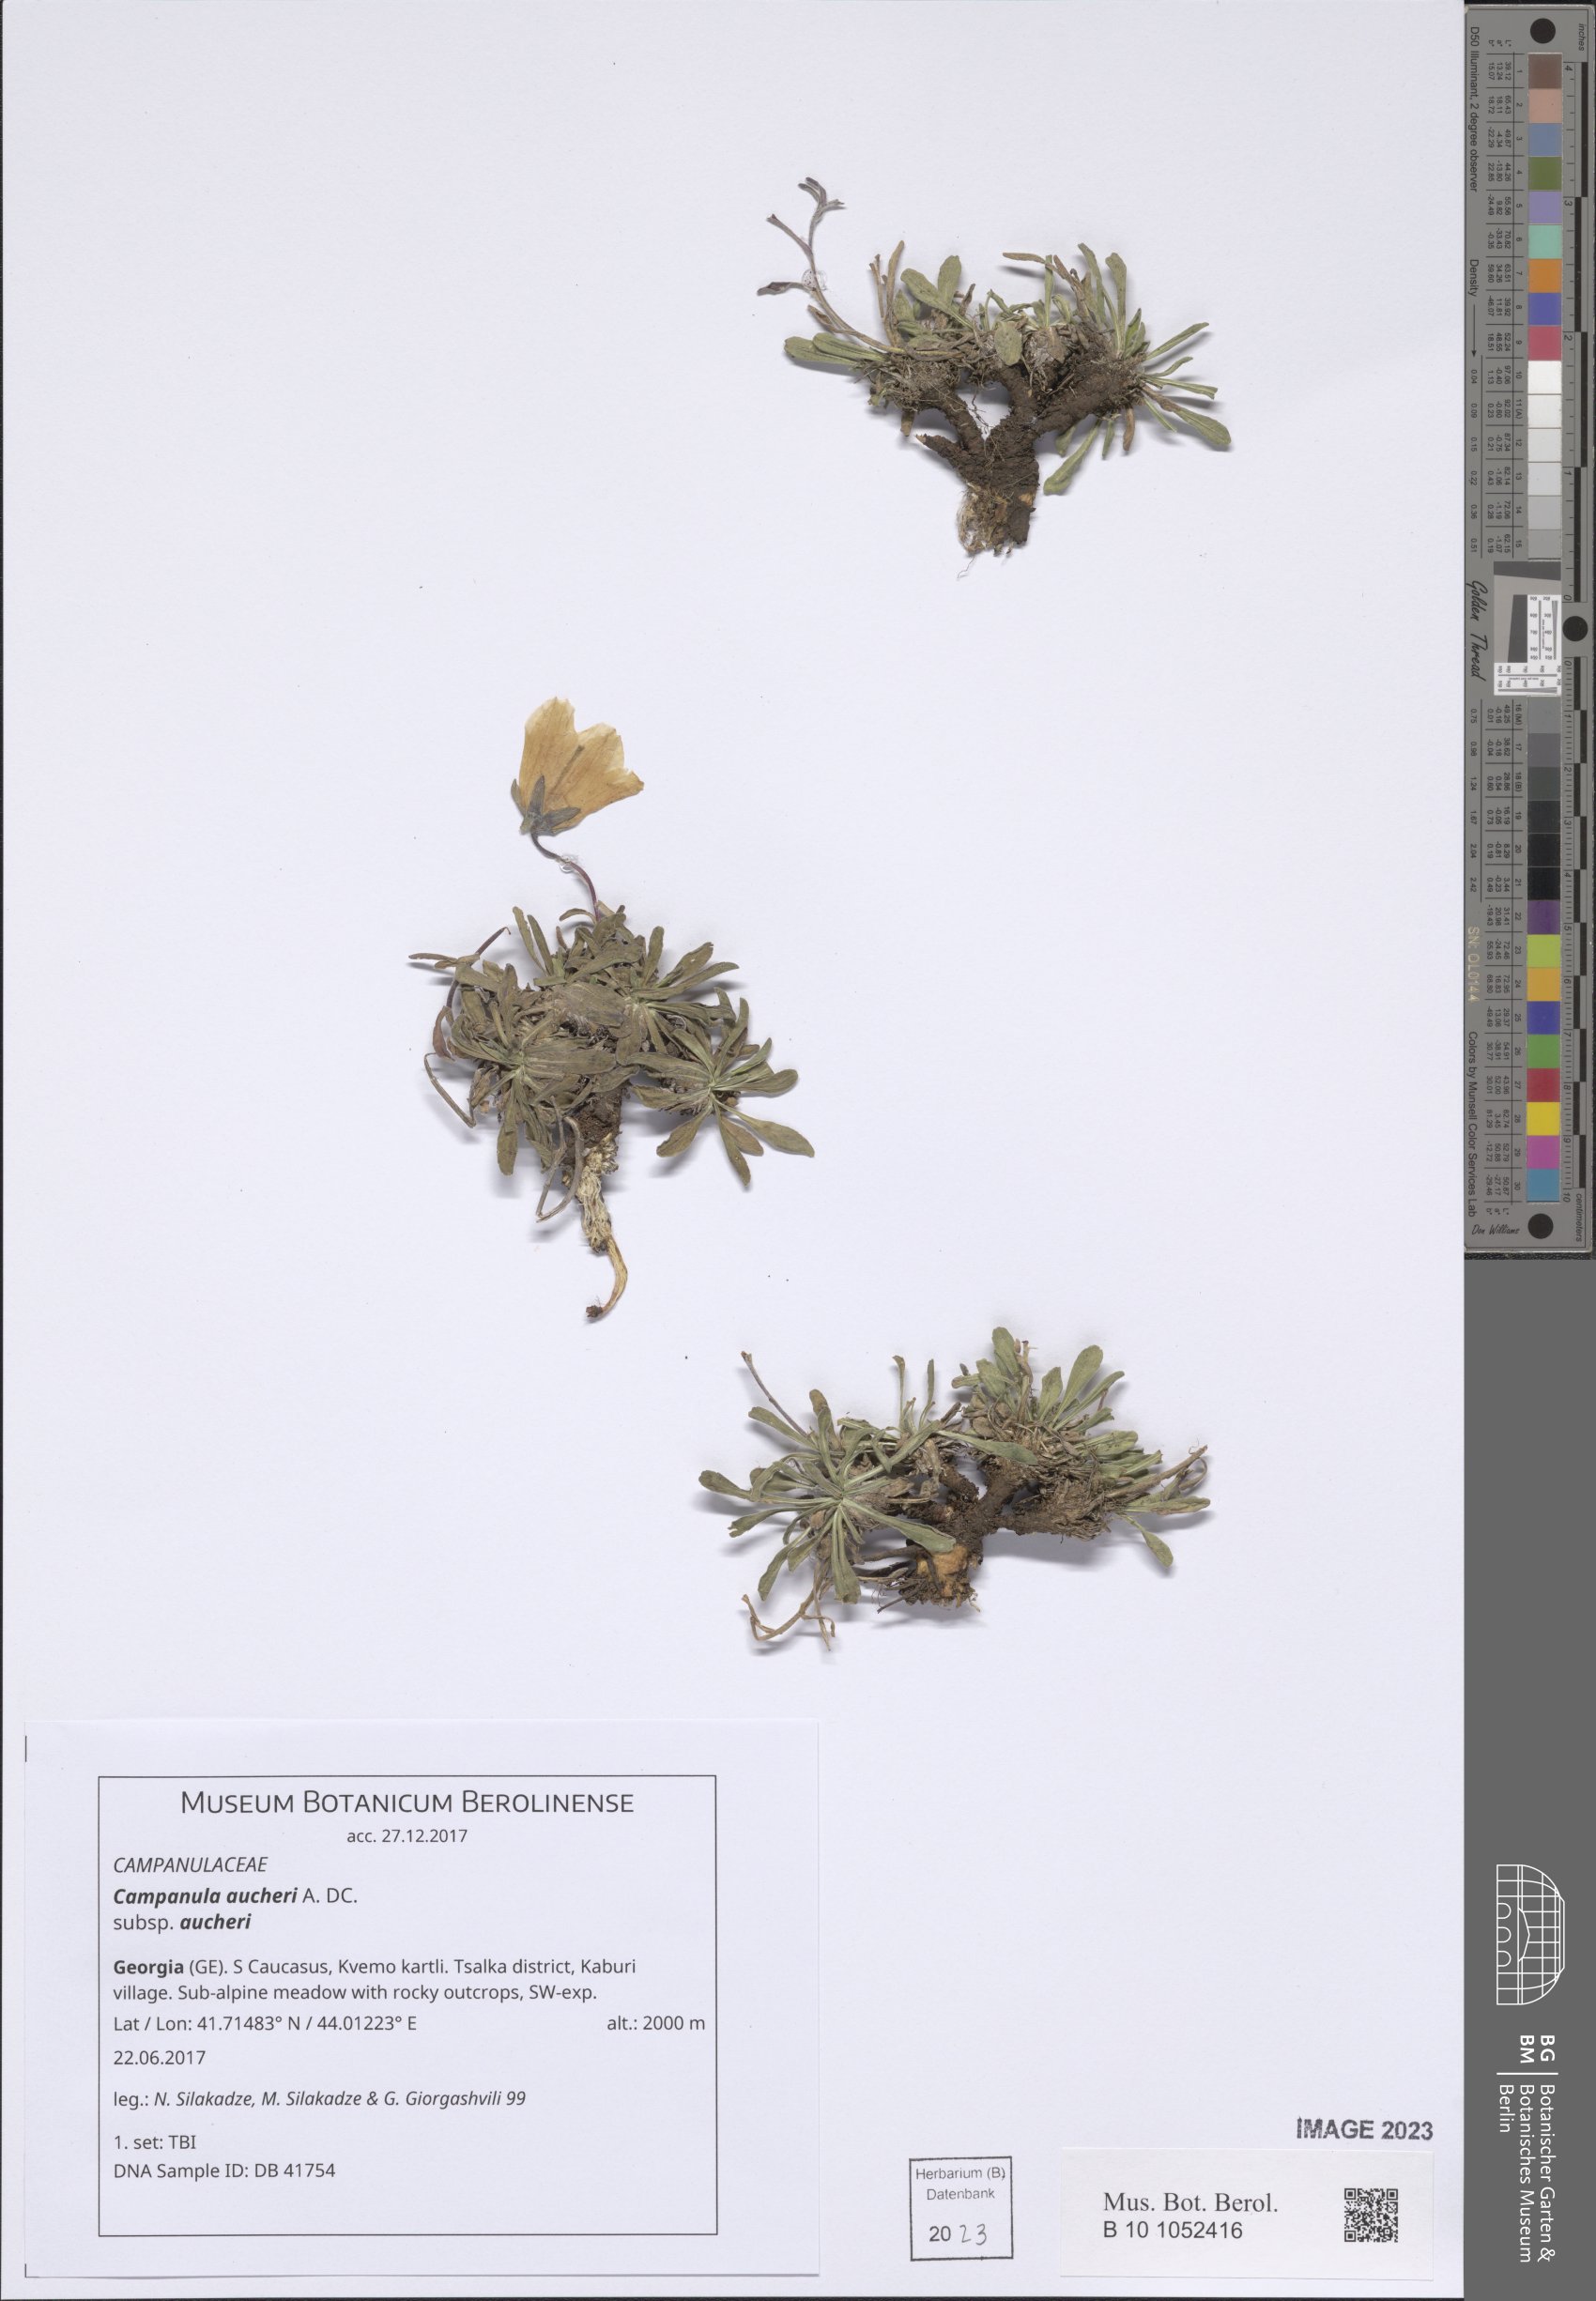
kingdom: Plantae
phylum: Tracheophyta
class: Magnoliopsida
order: Asterales
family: Campanulaceae
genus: Campanula
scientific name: Campanula saxifraga
